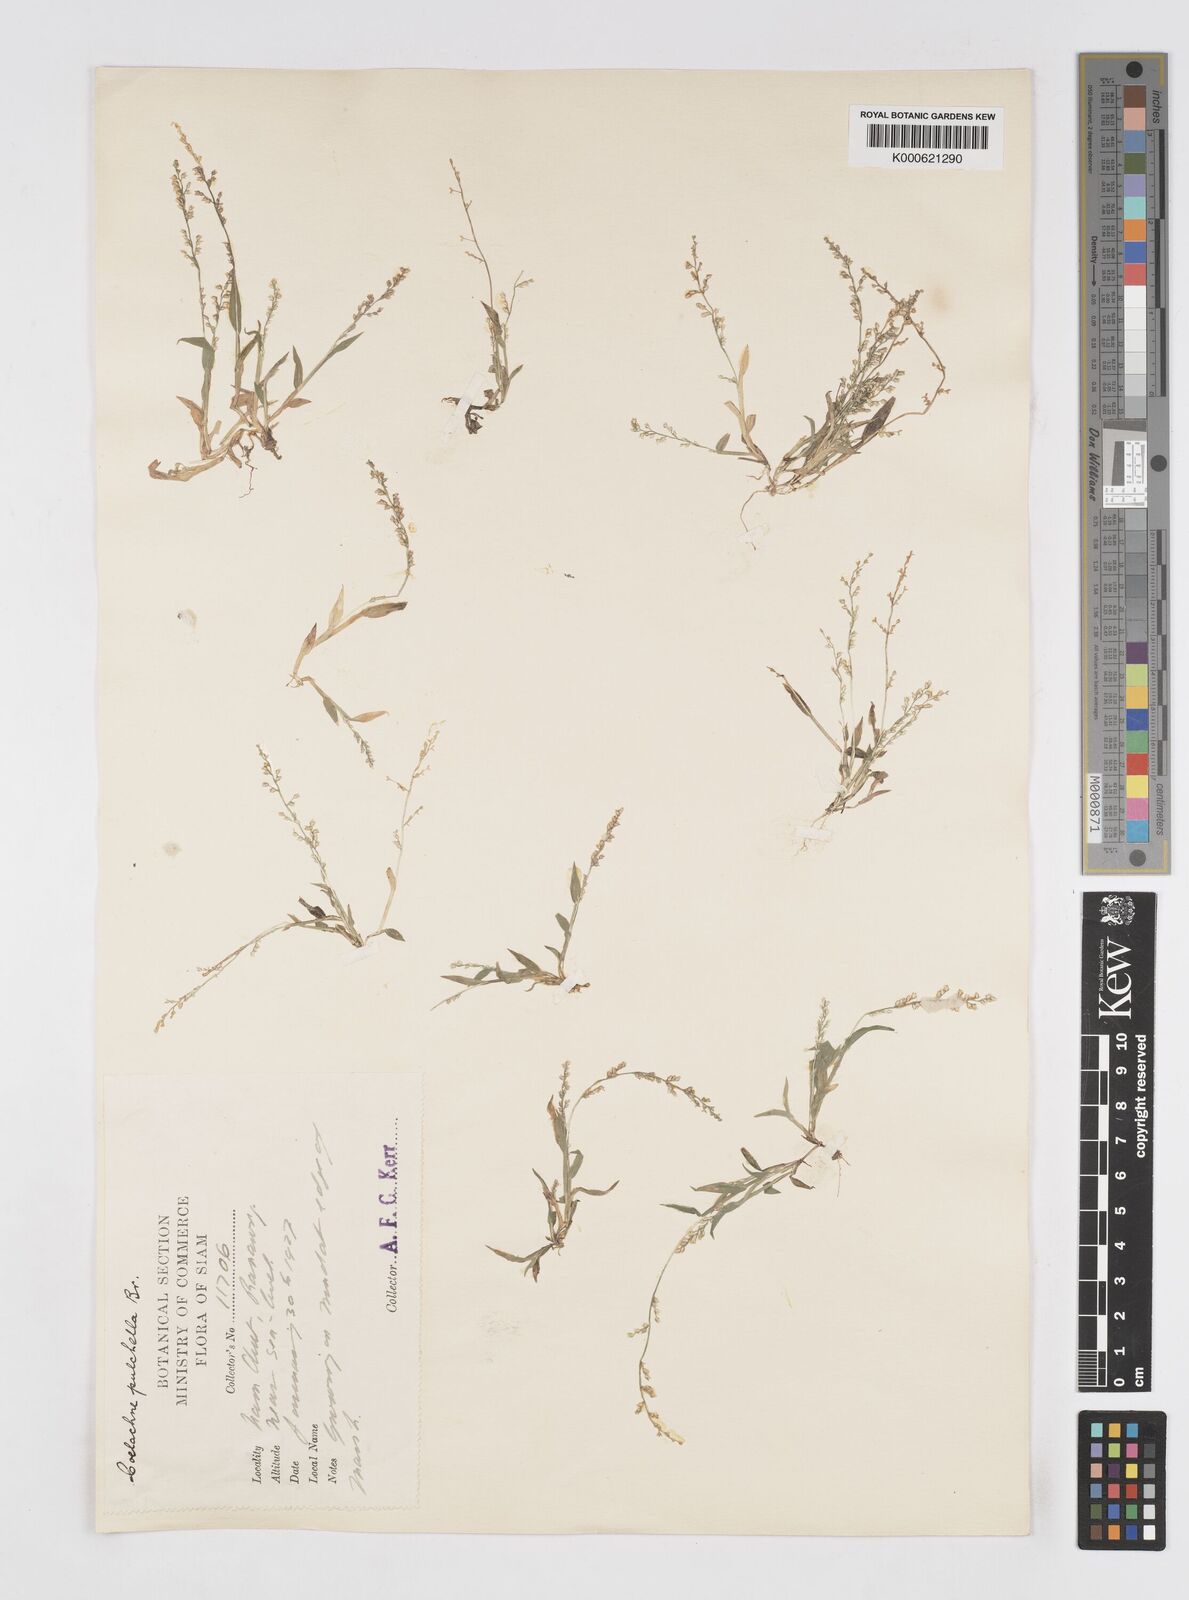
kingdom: Plantae
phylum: Tracheophyta
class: Liliopsida
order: Poales
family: Poaceae
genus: Coelachne
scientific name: Coelachne simpliciuscula
